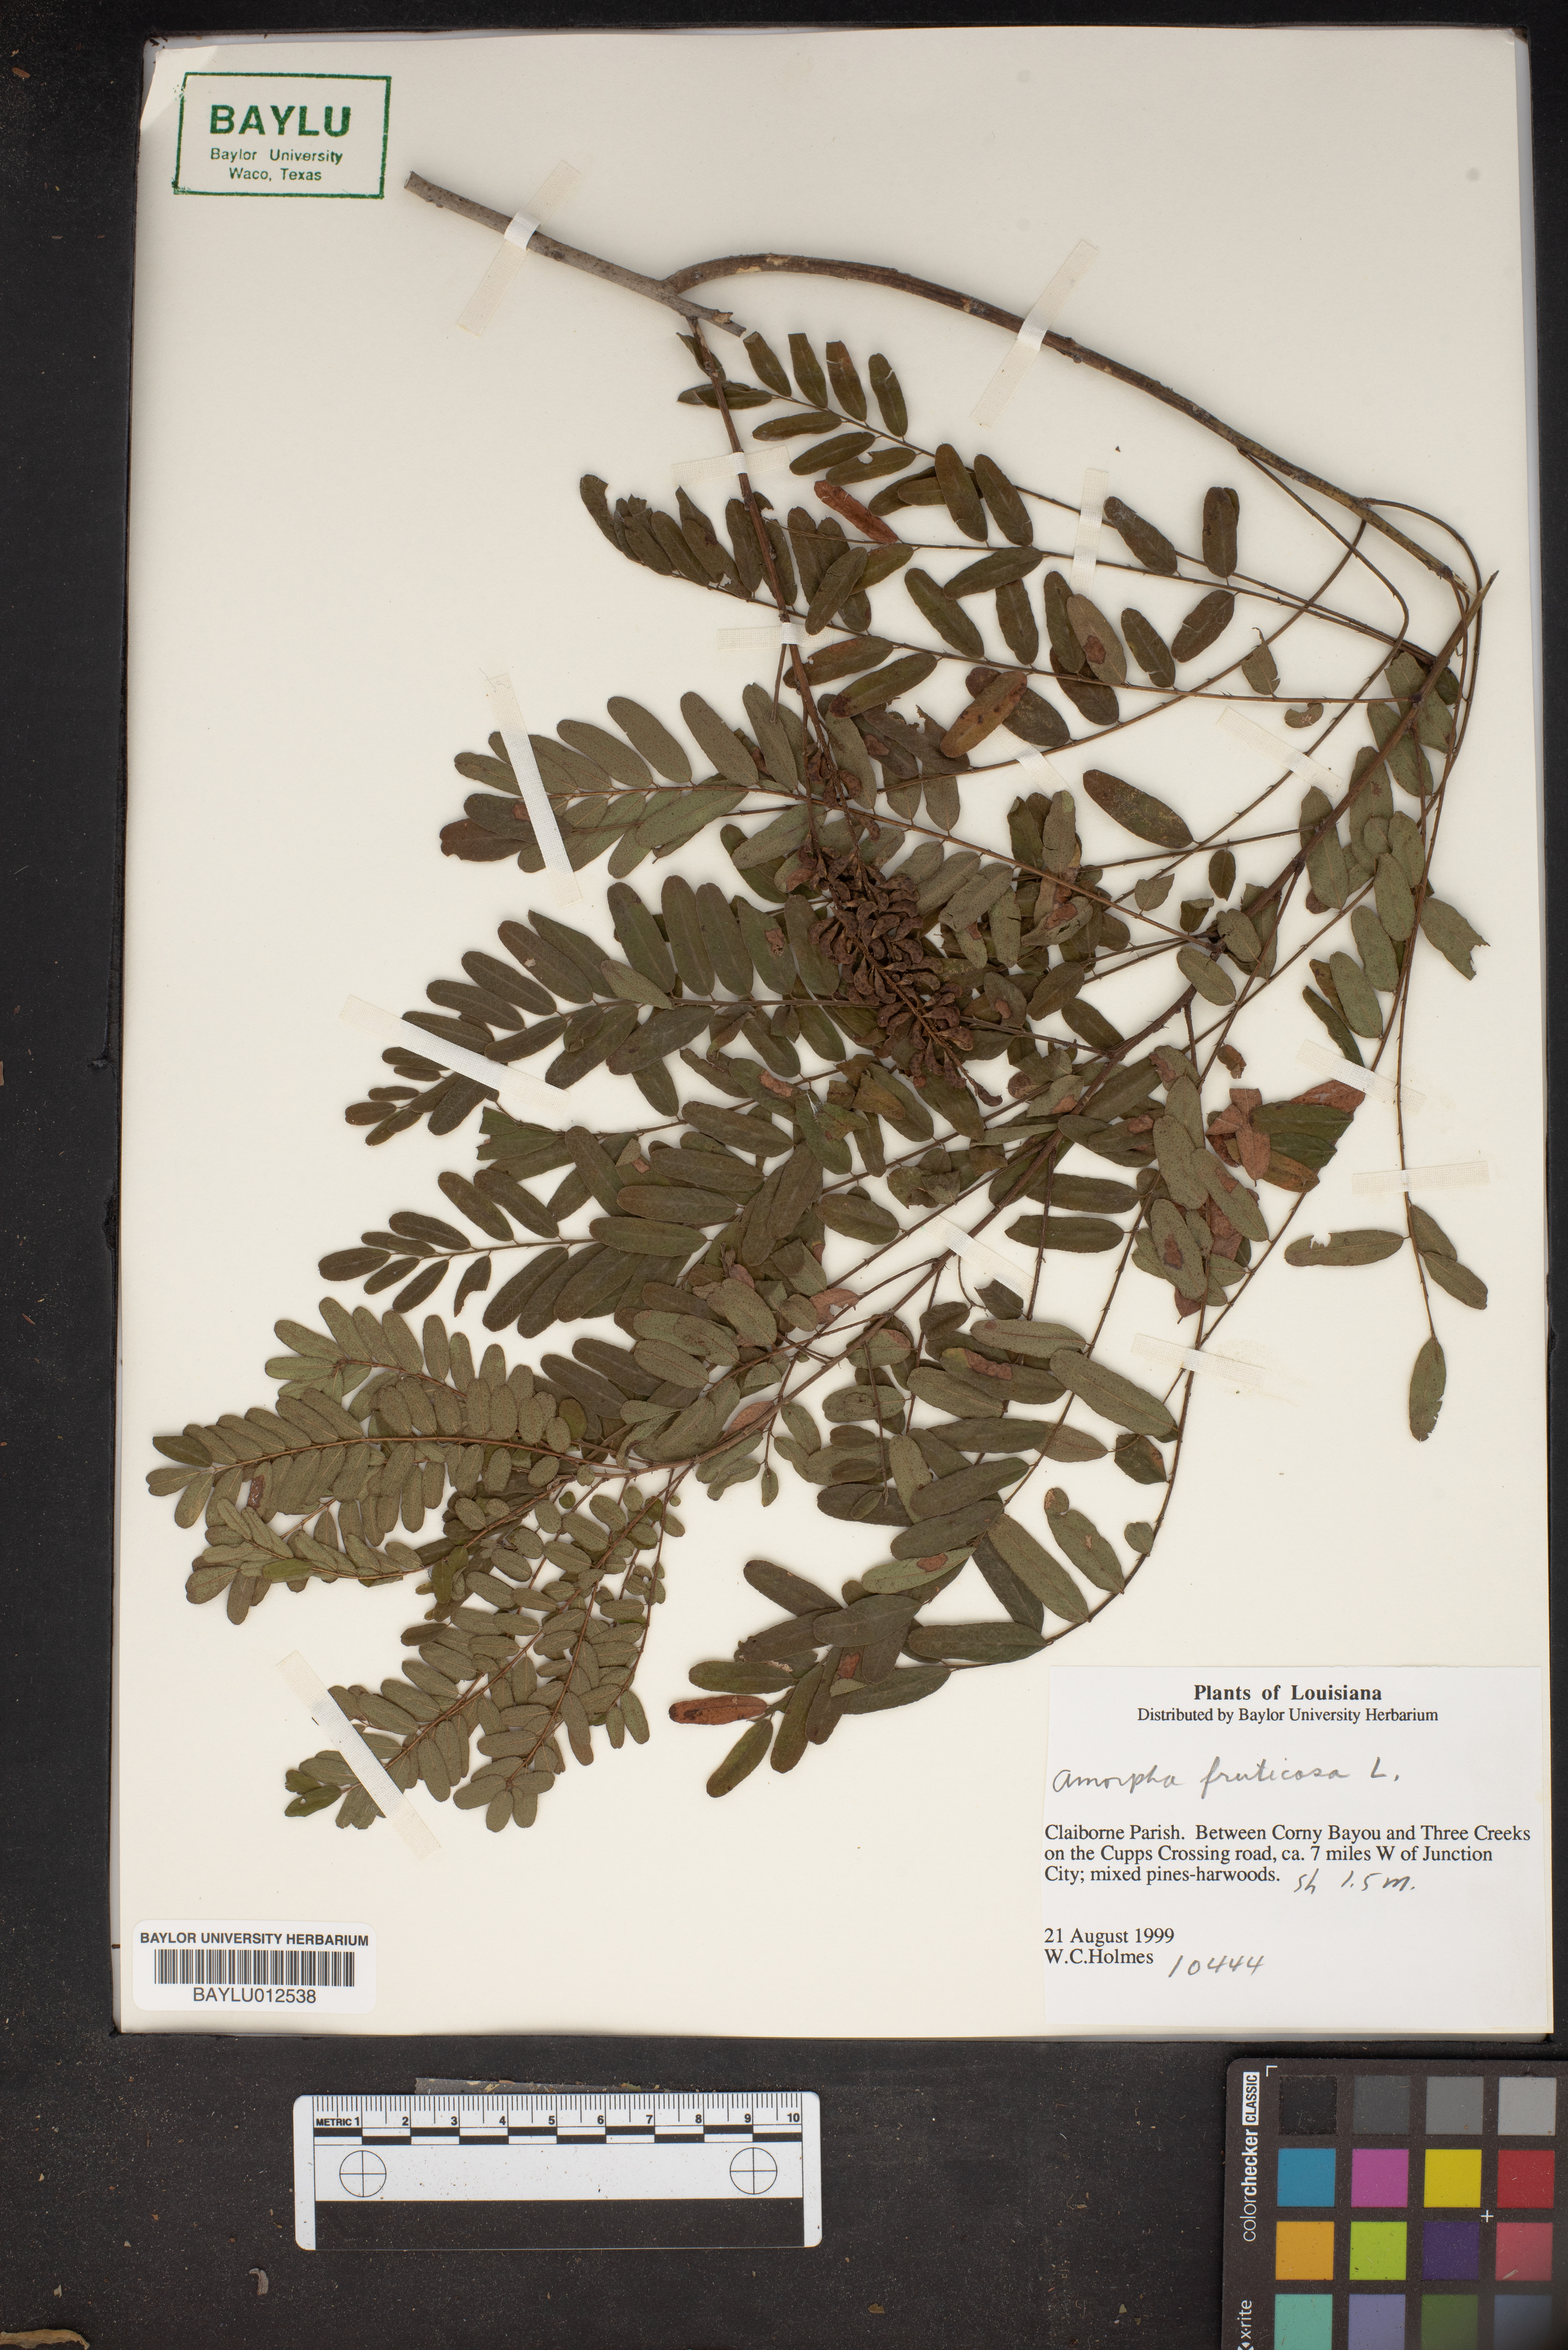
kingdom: Plantae
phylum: Tracheophyta
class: Magnoliopsida
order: Fabales
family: Fabaceae
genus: Amorpha
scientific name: Amorpha fruticosa
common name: False indigo
